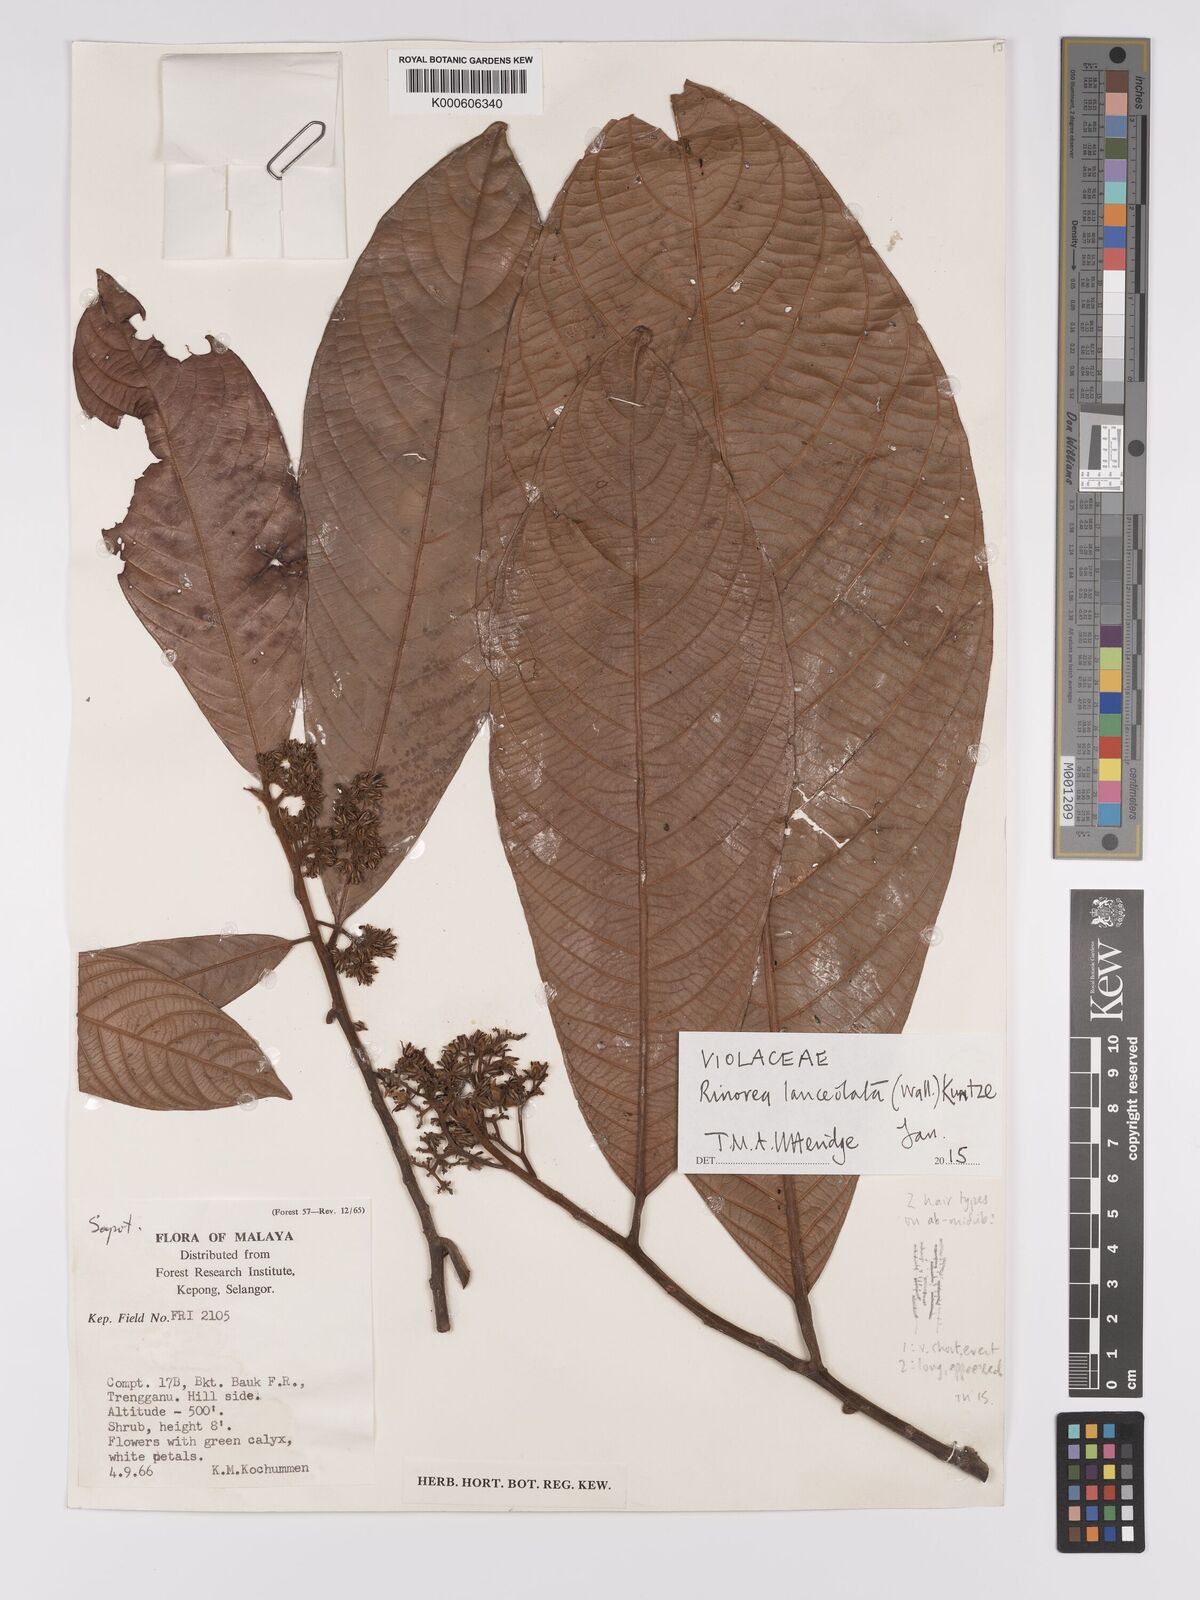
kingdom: Plantae
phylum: Tracheophyta
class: Magnoliopsida
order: Malpighiales
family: Violaceae
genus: Rinorea
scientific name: Rinorea lanceolata
